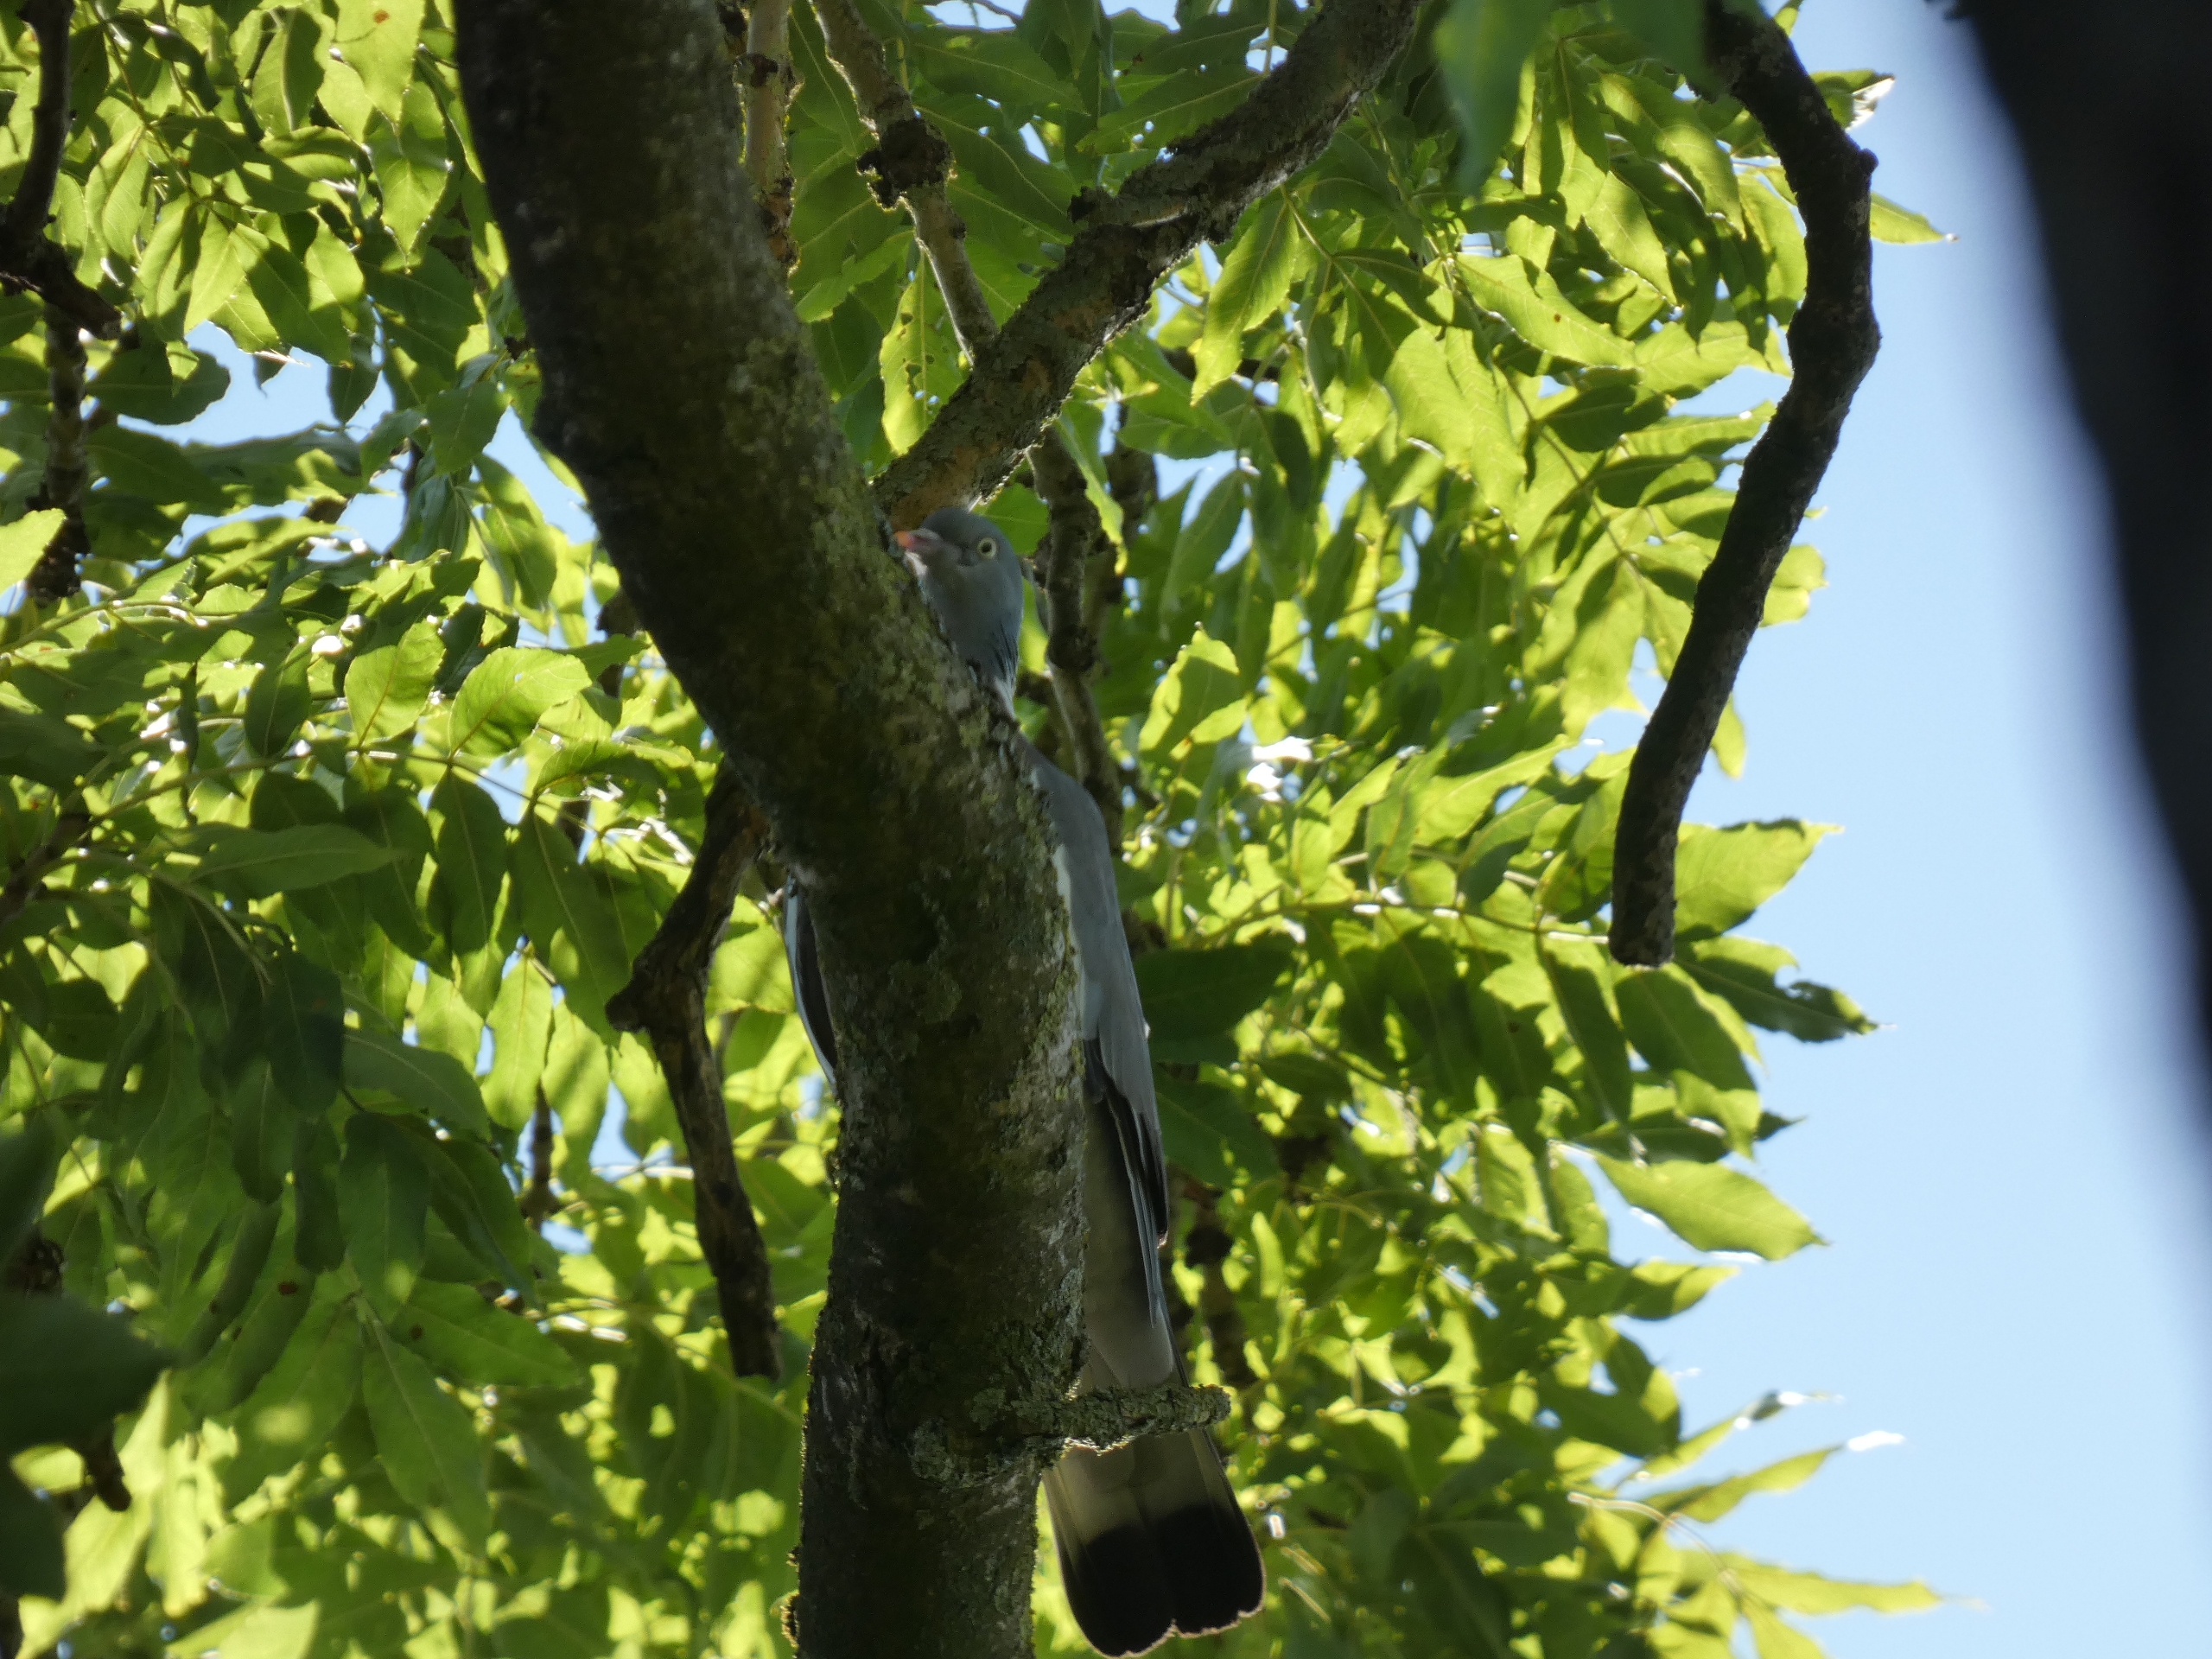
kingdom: Animalia
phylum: Chordata
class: Aves
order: Columbiformes
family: Columbidae
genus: Columba
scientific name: Columba palumbus
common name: Ringdue
